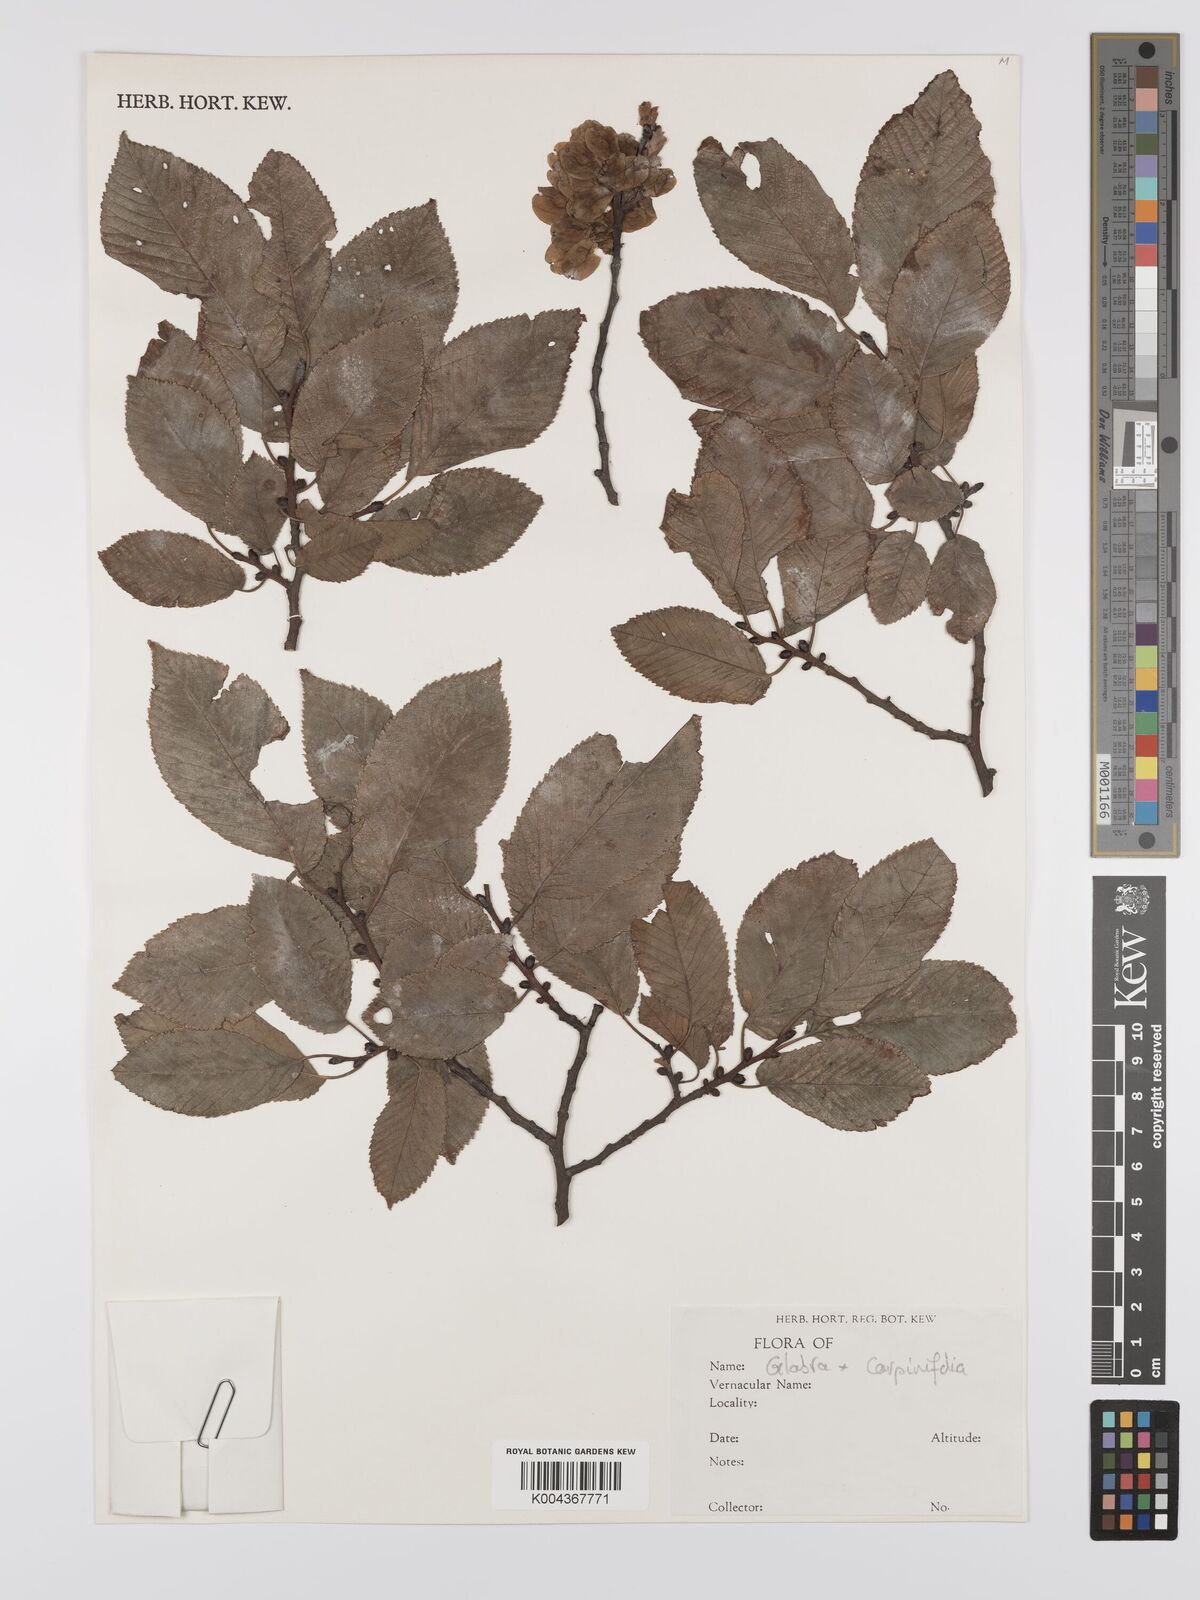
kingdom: Plantae
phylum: Tracheophyta
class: Magnoliopsida
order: Rosales
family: Ulmaceae
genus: Ulmus
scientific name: Ulmus
